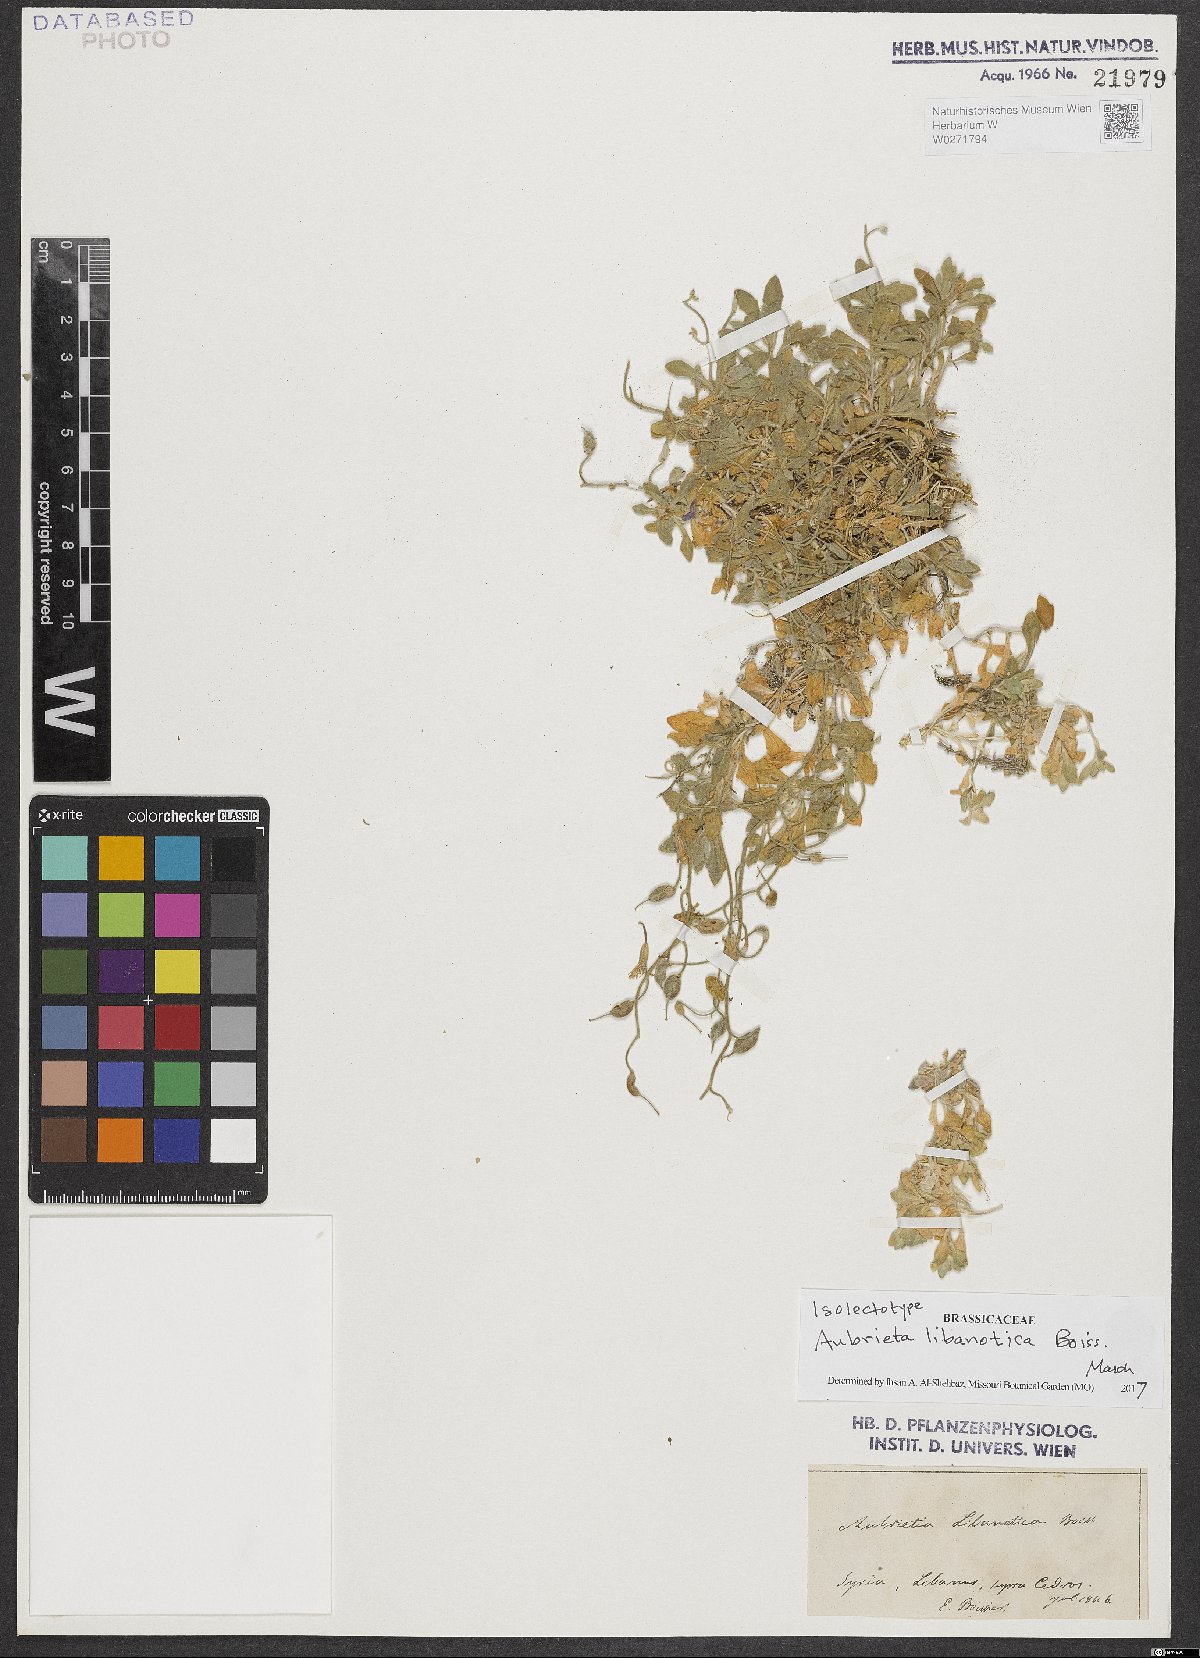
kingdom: Plantae
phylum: Tracheophyta
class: Magnoliopsida
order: Brassicales
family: Brassicaceae
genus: Aubrieta
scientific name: Aubrieta libanotica
